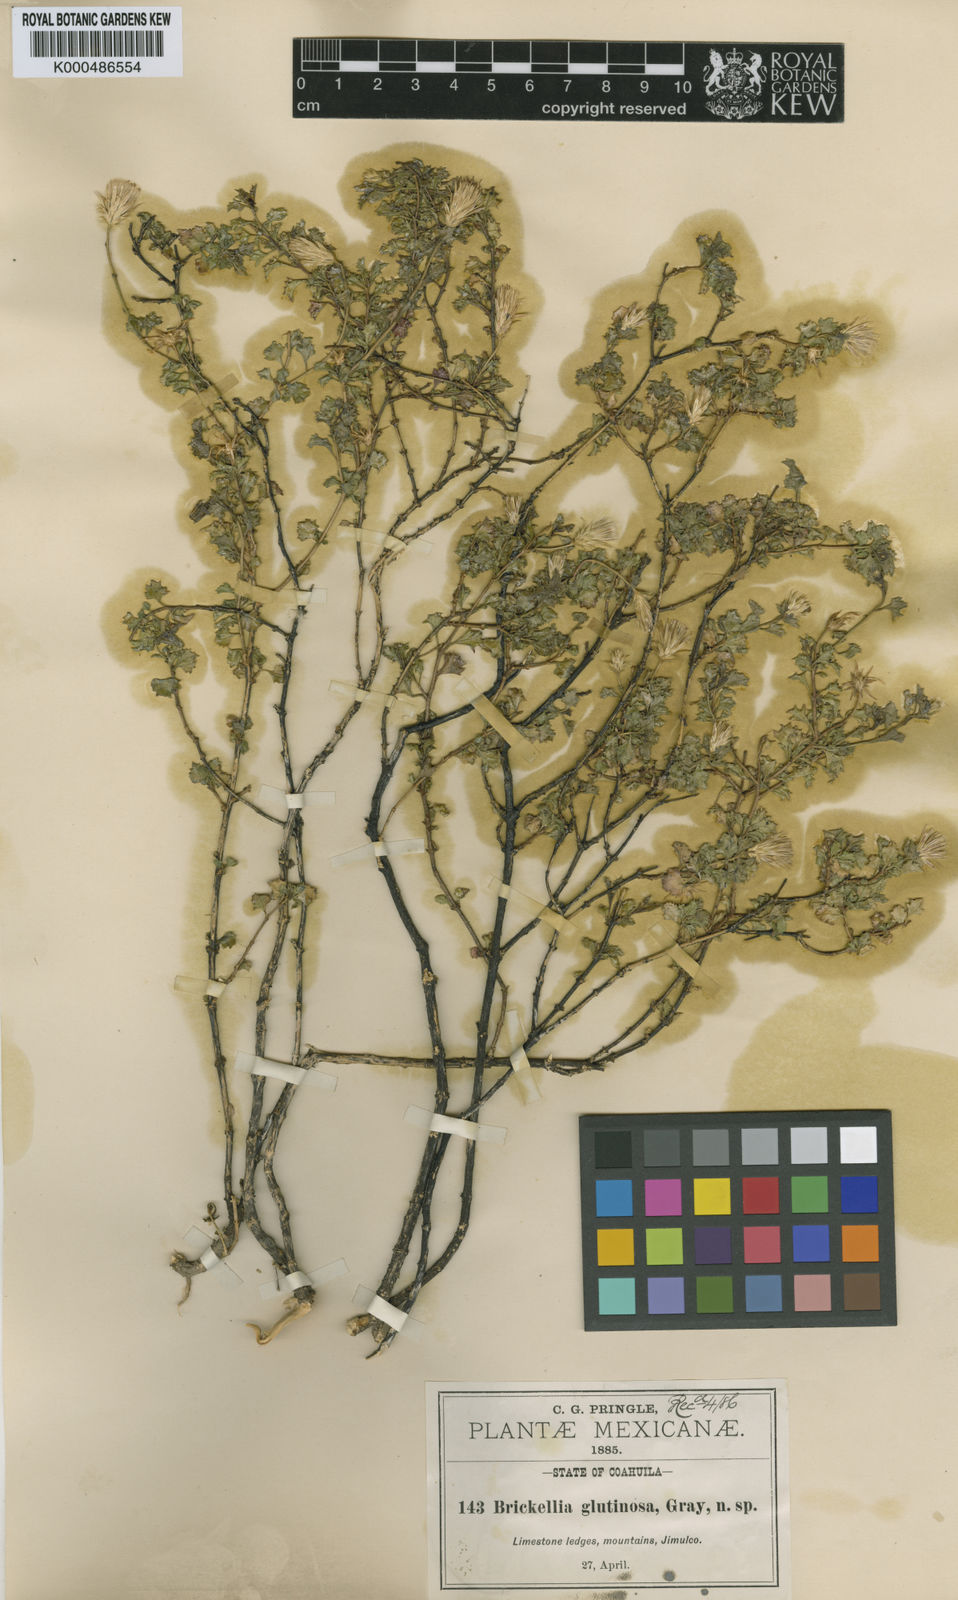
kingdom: Plantae
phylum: Tracheophyta
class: Magnoliopsida
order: Asterales
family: Asteraceae
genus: Brickellia
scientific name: Brickellia glutinosa
